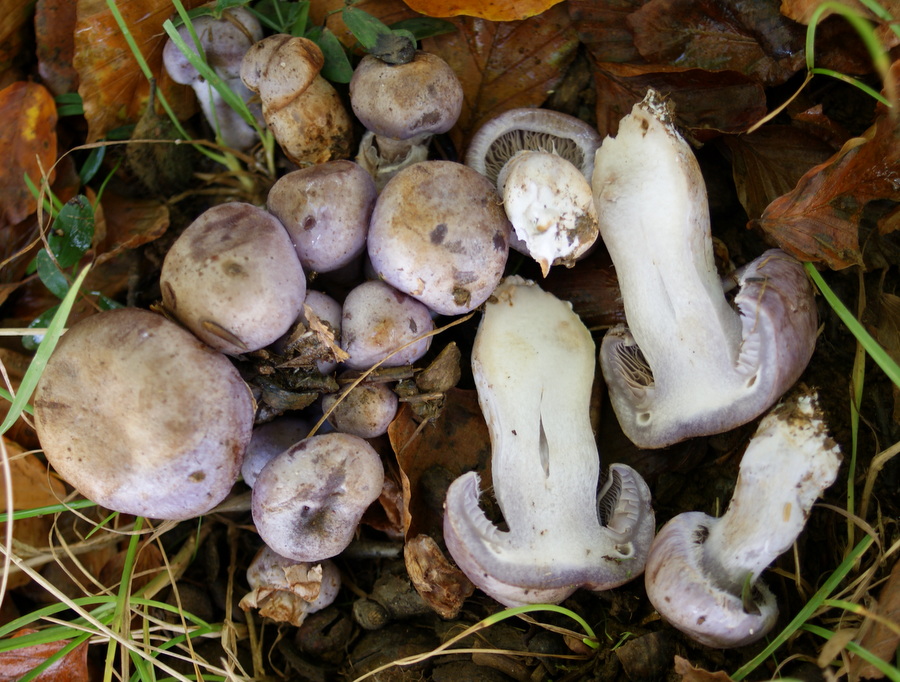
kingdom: Fungi
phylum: Basidiomycota
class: Agaricomycetes
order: Agaricales
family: Cortinariaceae
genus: Cortinarius
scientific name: Cortinarius largus
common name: violetrandet slørhat
